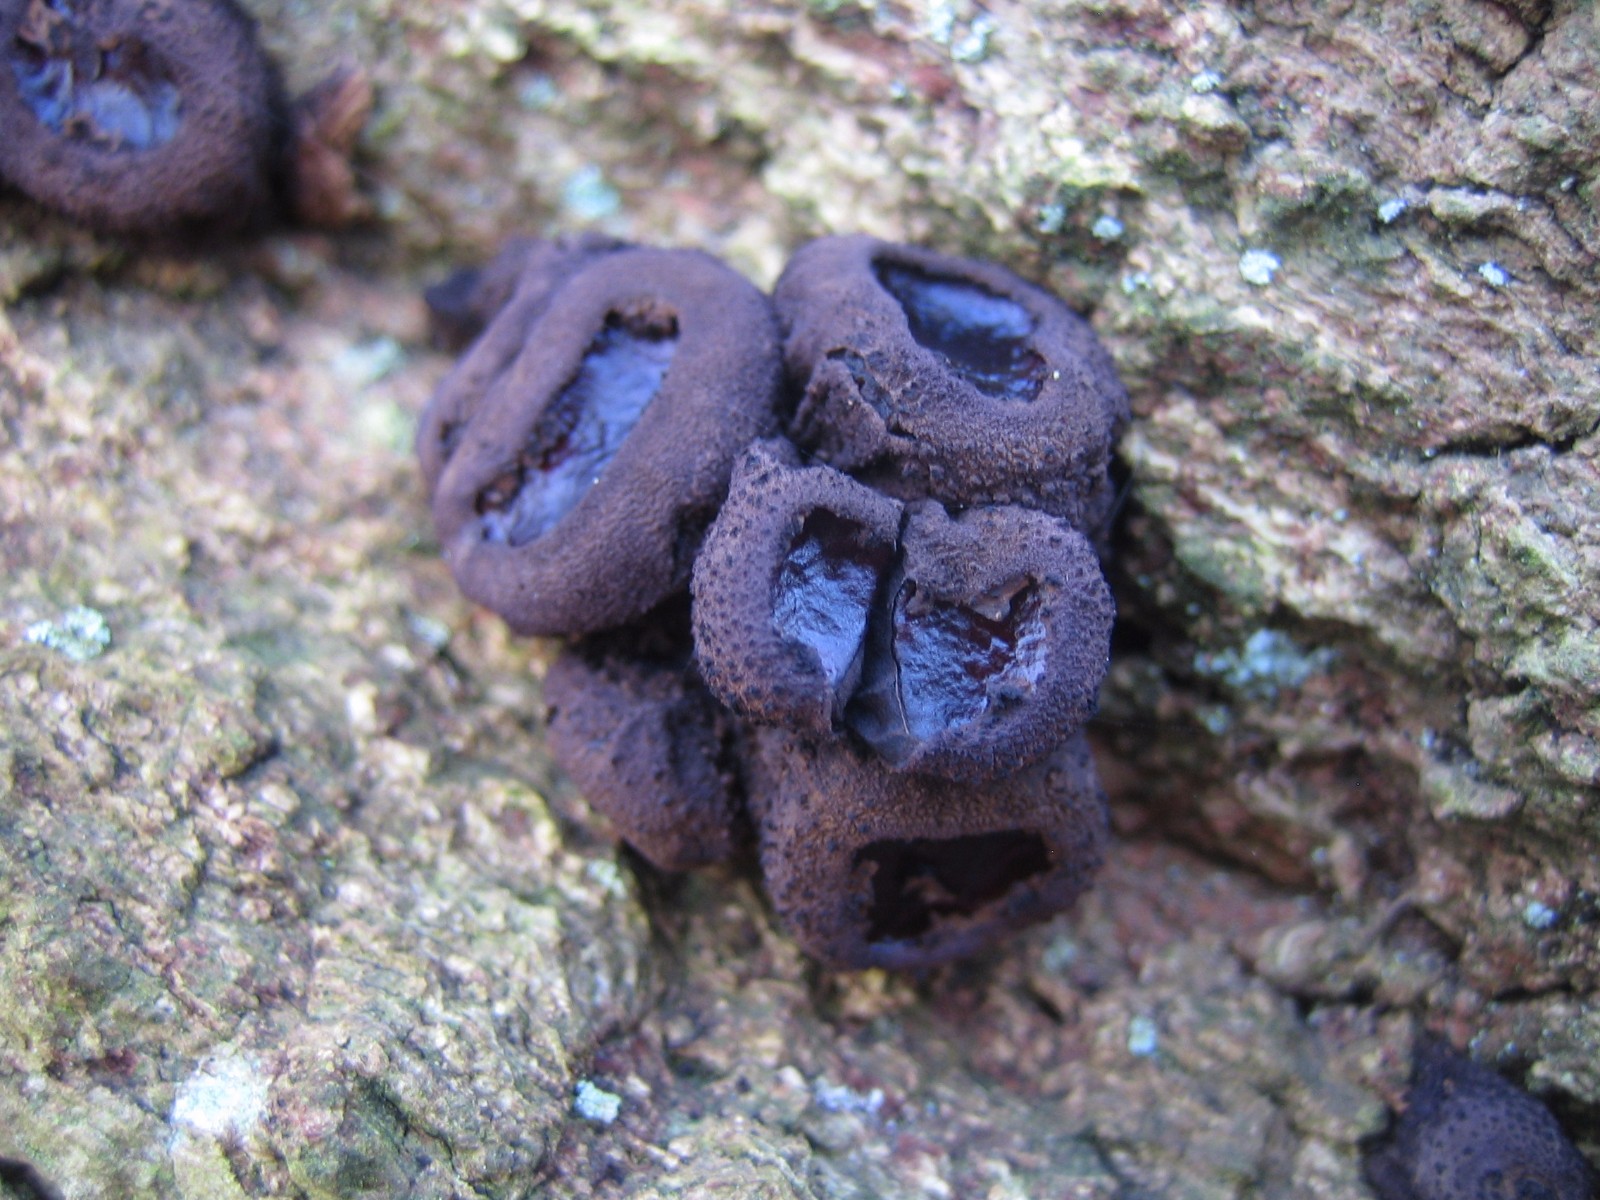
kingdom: Fungi
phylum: Ascomycota
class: Leotiomycetes
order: Phacidiales
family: Phacidiaceae
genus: Bulgaria
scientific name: Bulgaria inquinans
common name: afsmittende topsvamp
